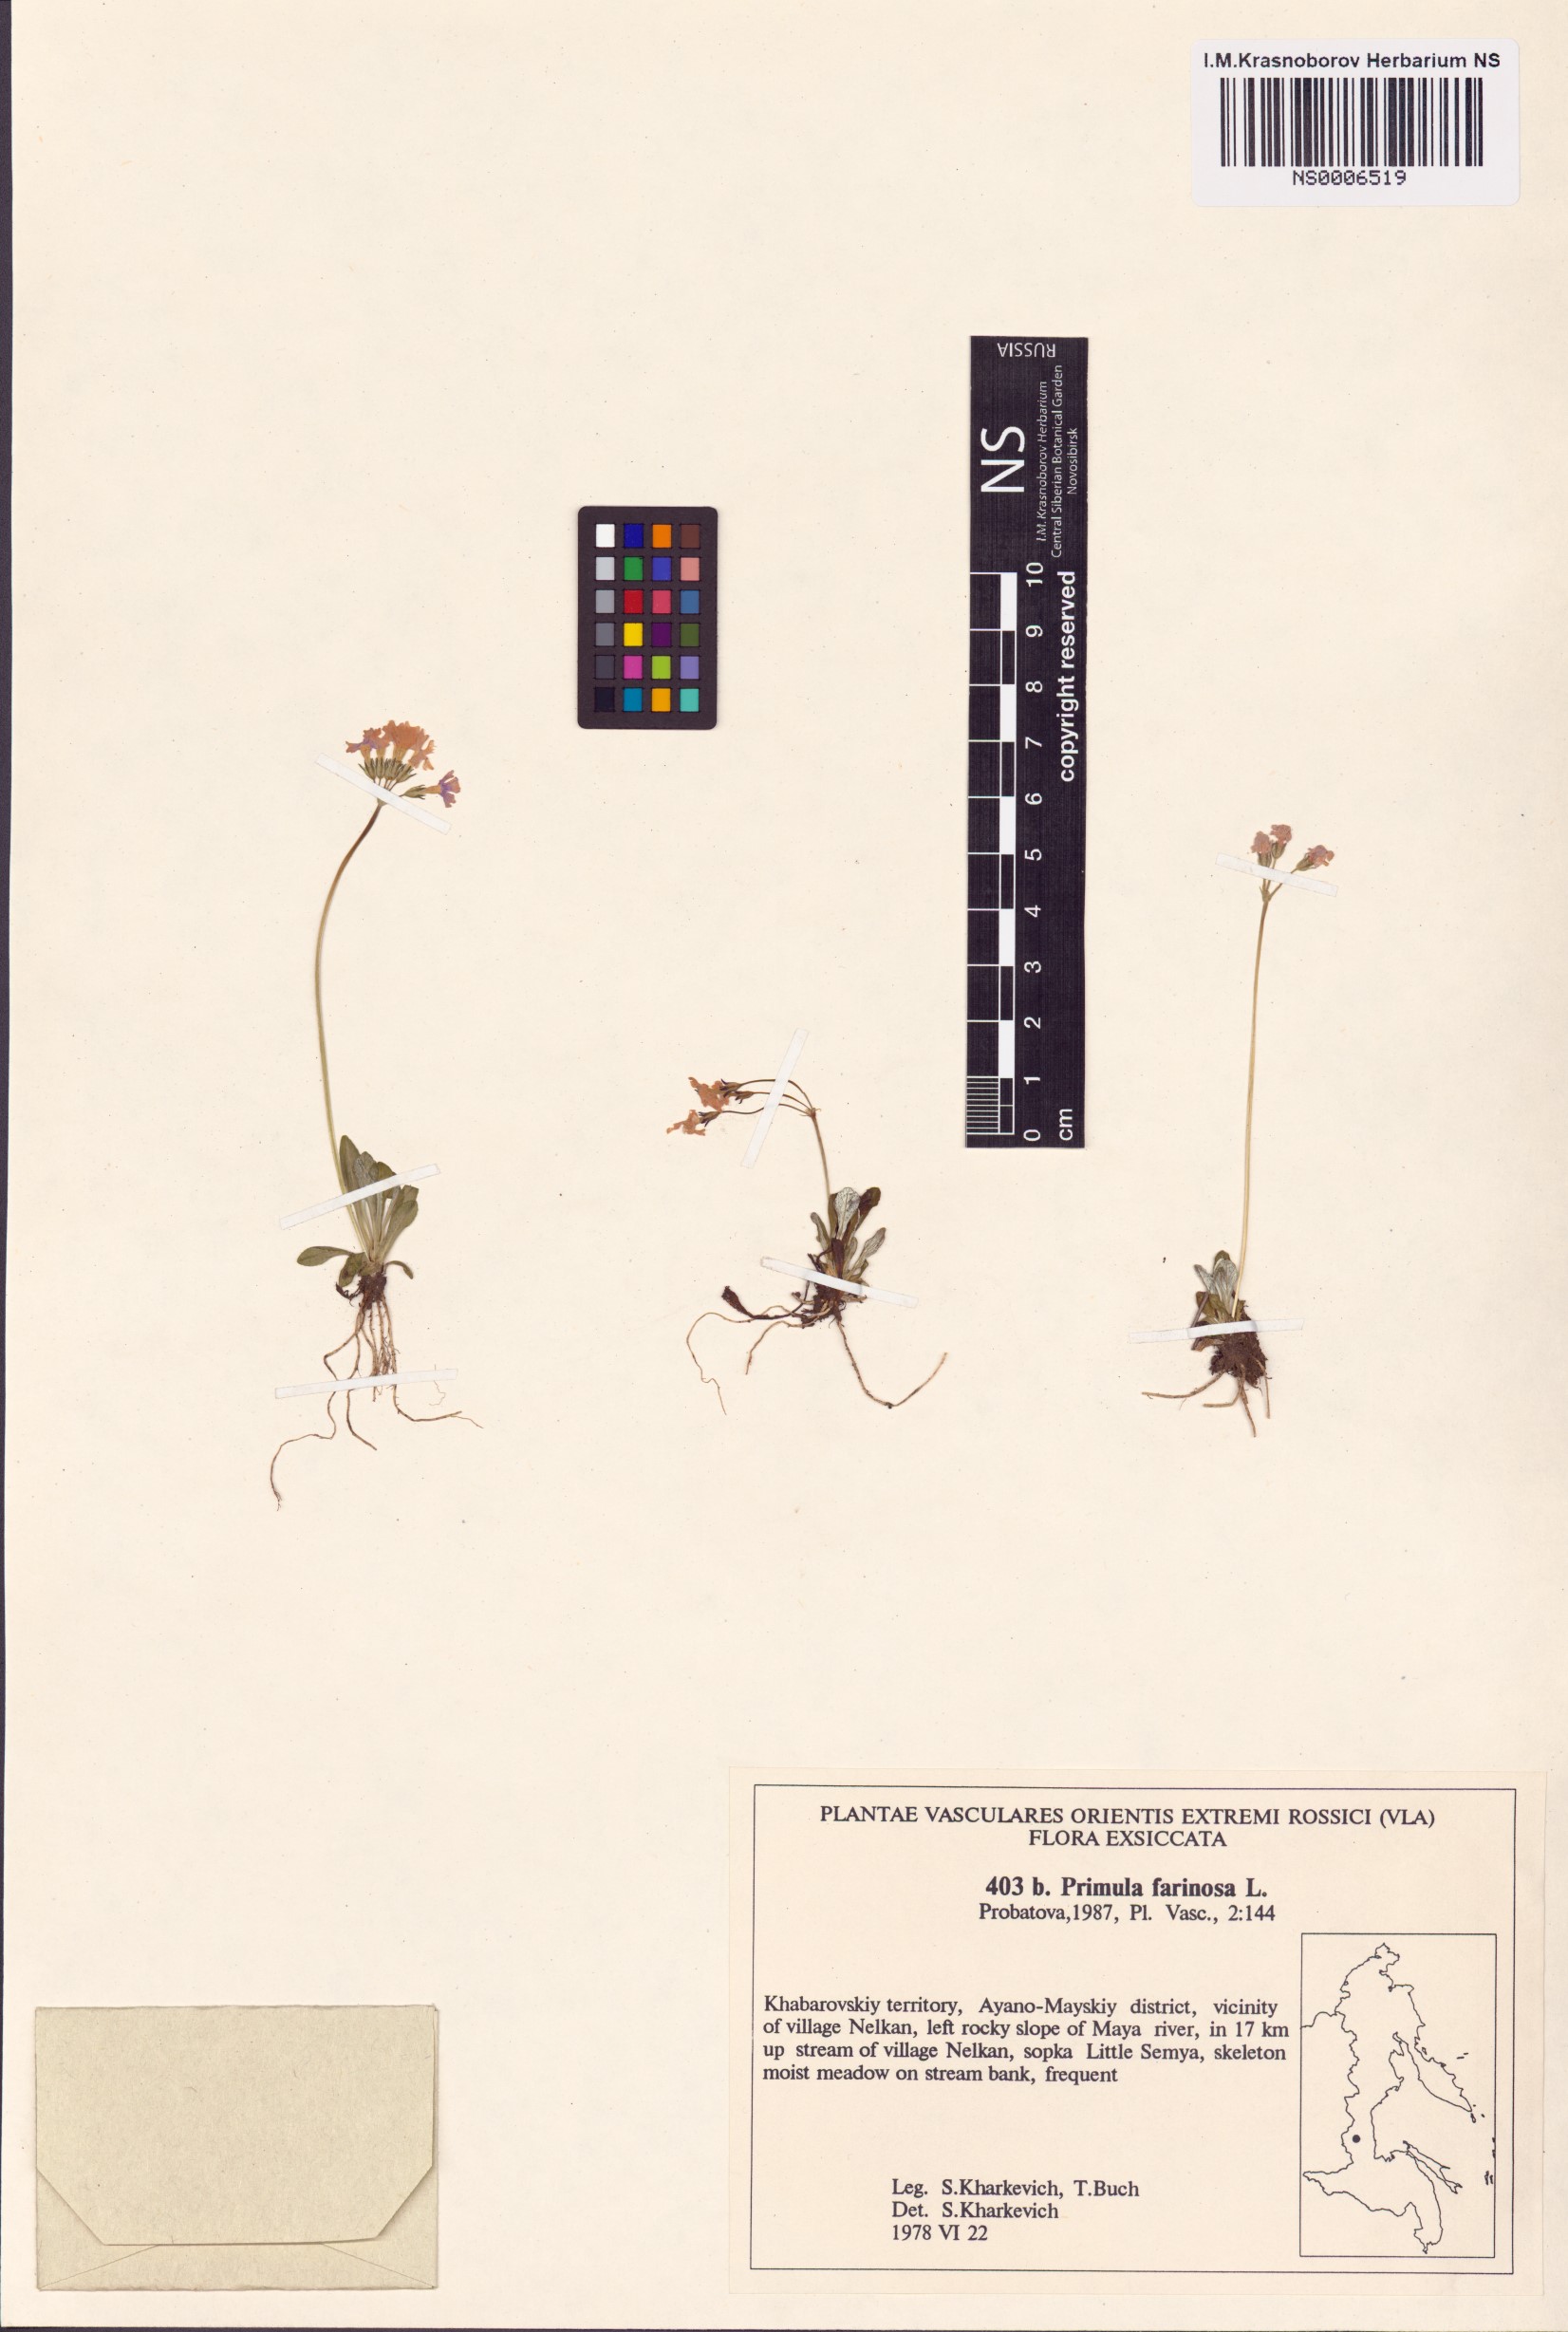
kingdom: Plantae
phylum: Tracheophyta
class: Magnoliopsida
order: Ericales
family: Primulaceae
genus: Primula
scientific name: Primula farinosa
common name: Bird's-eye primrose
